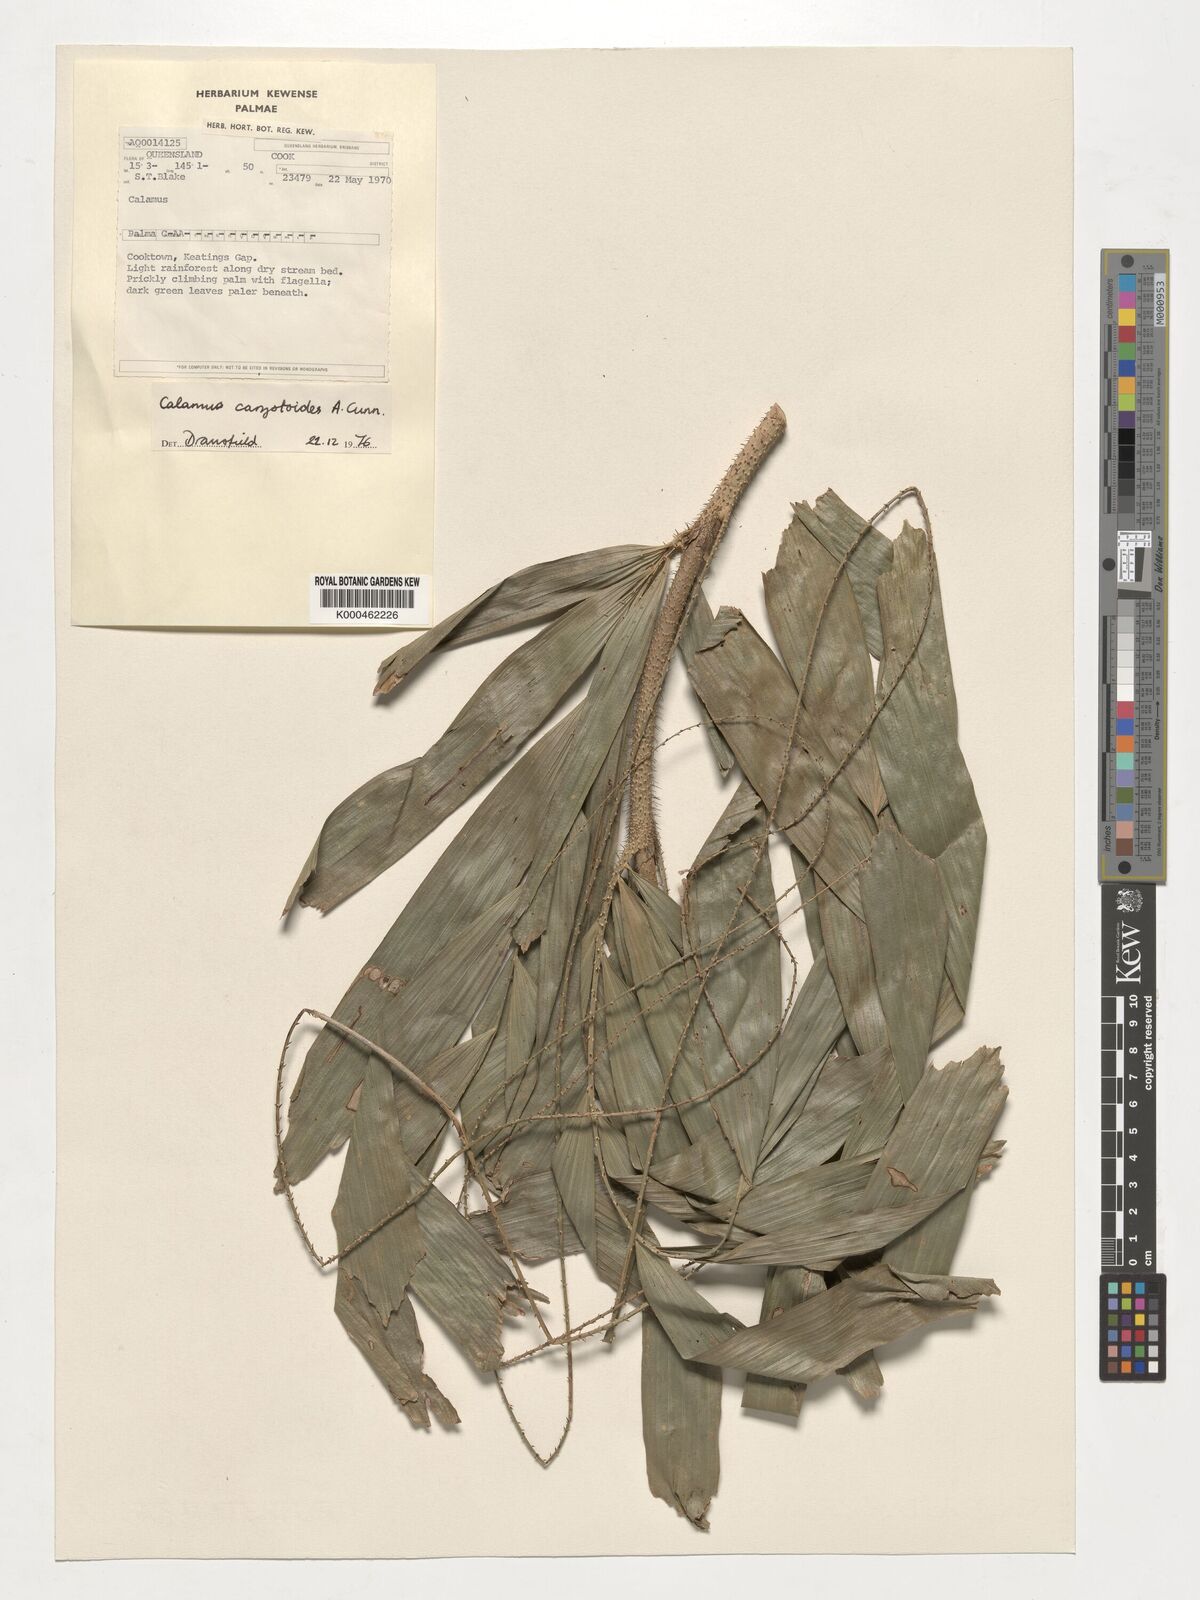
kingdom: Plantae
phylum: Tracheophyta
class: Liliopsida
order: Arecales
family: Arecaceae
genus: Calamus
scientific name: Calamus caryotoides
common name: Fishtail lawyer cane
